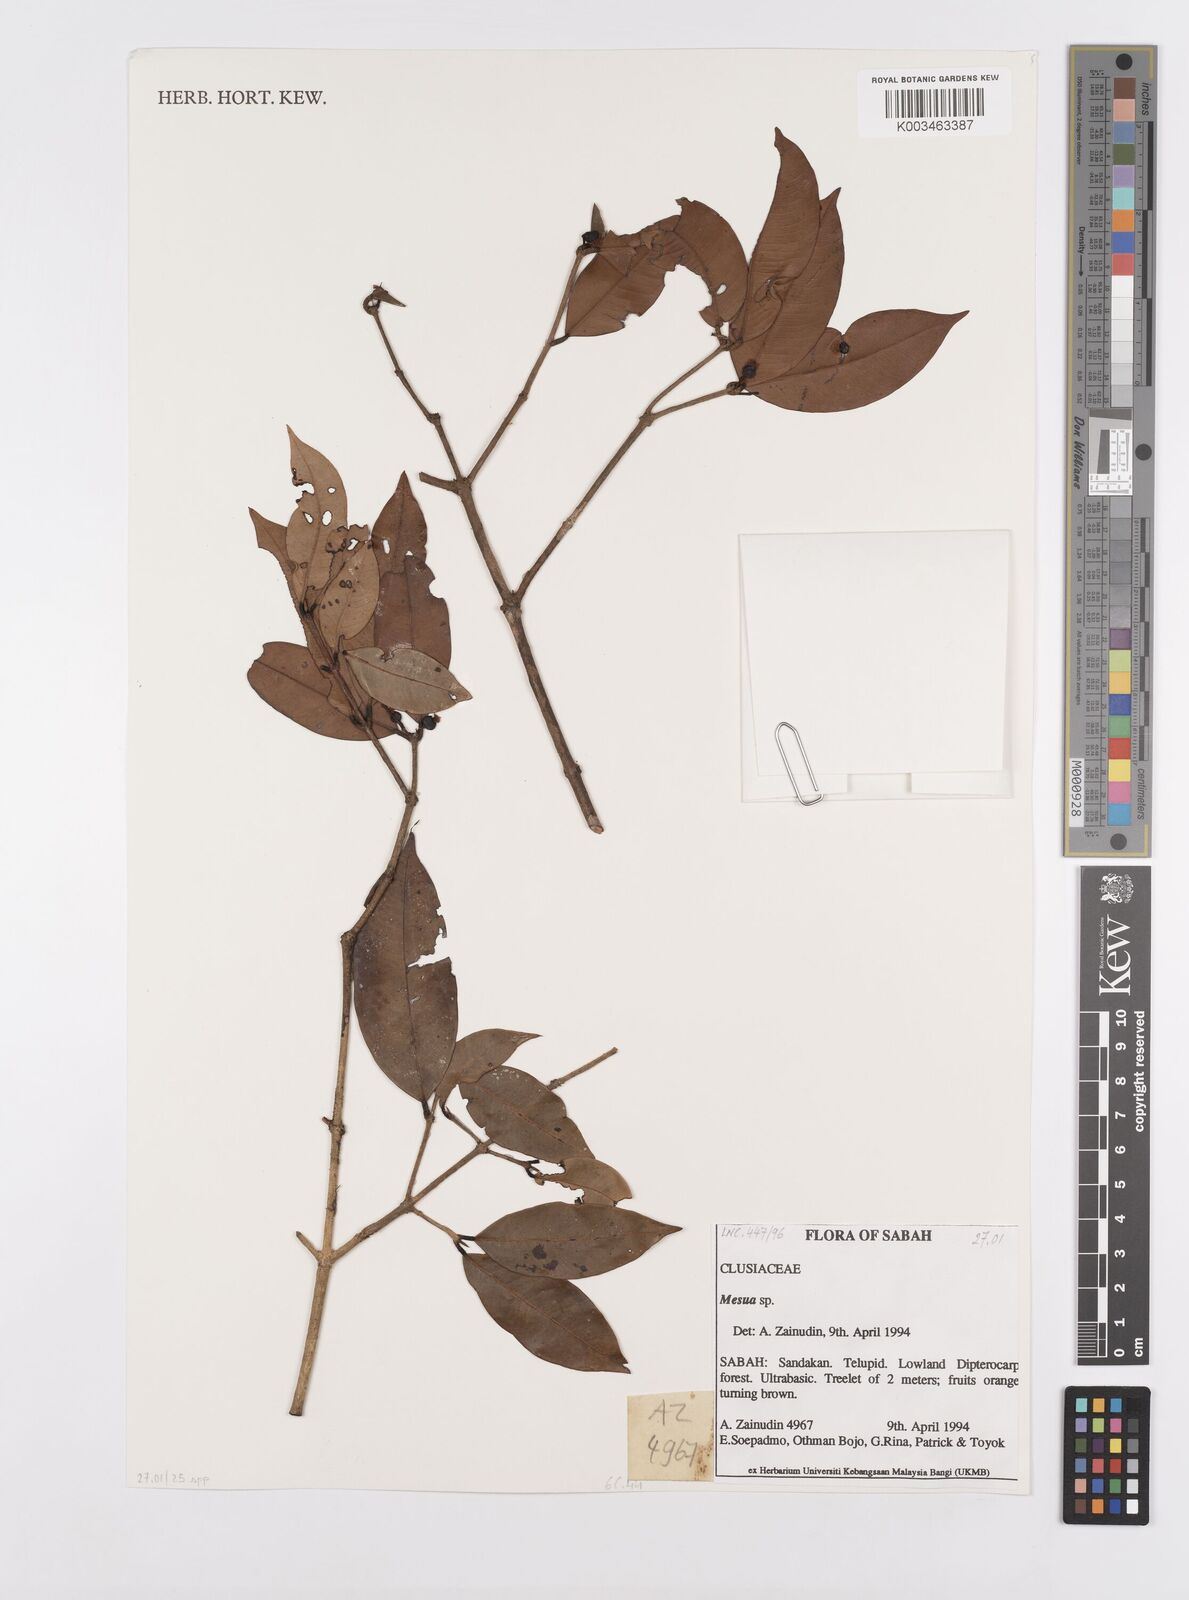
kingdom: Plantae
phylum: Tracheophyta
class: Magnoliopsida
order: Malpighiales
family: Calophyllaceae
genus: Kayea
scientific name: Kayea
